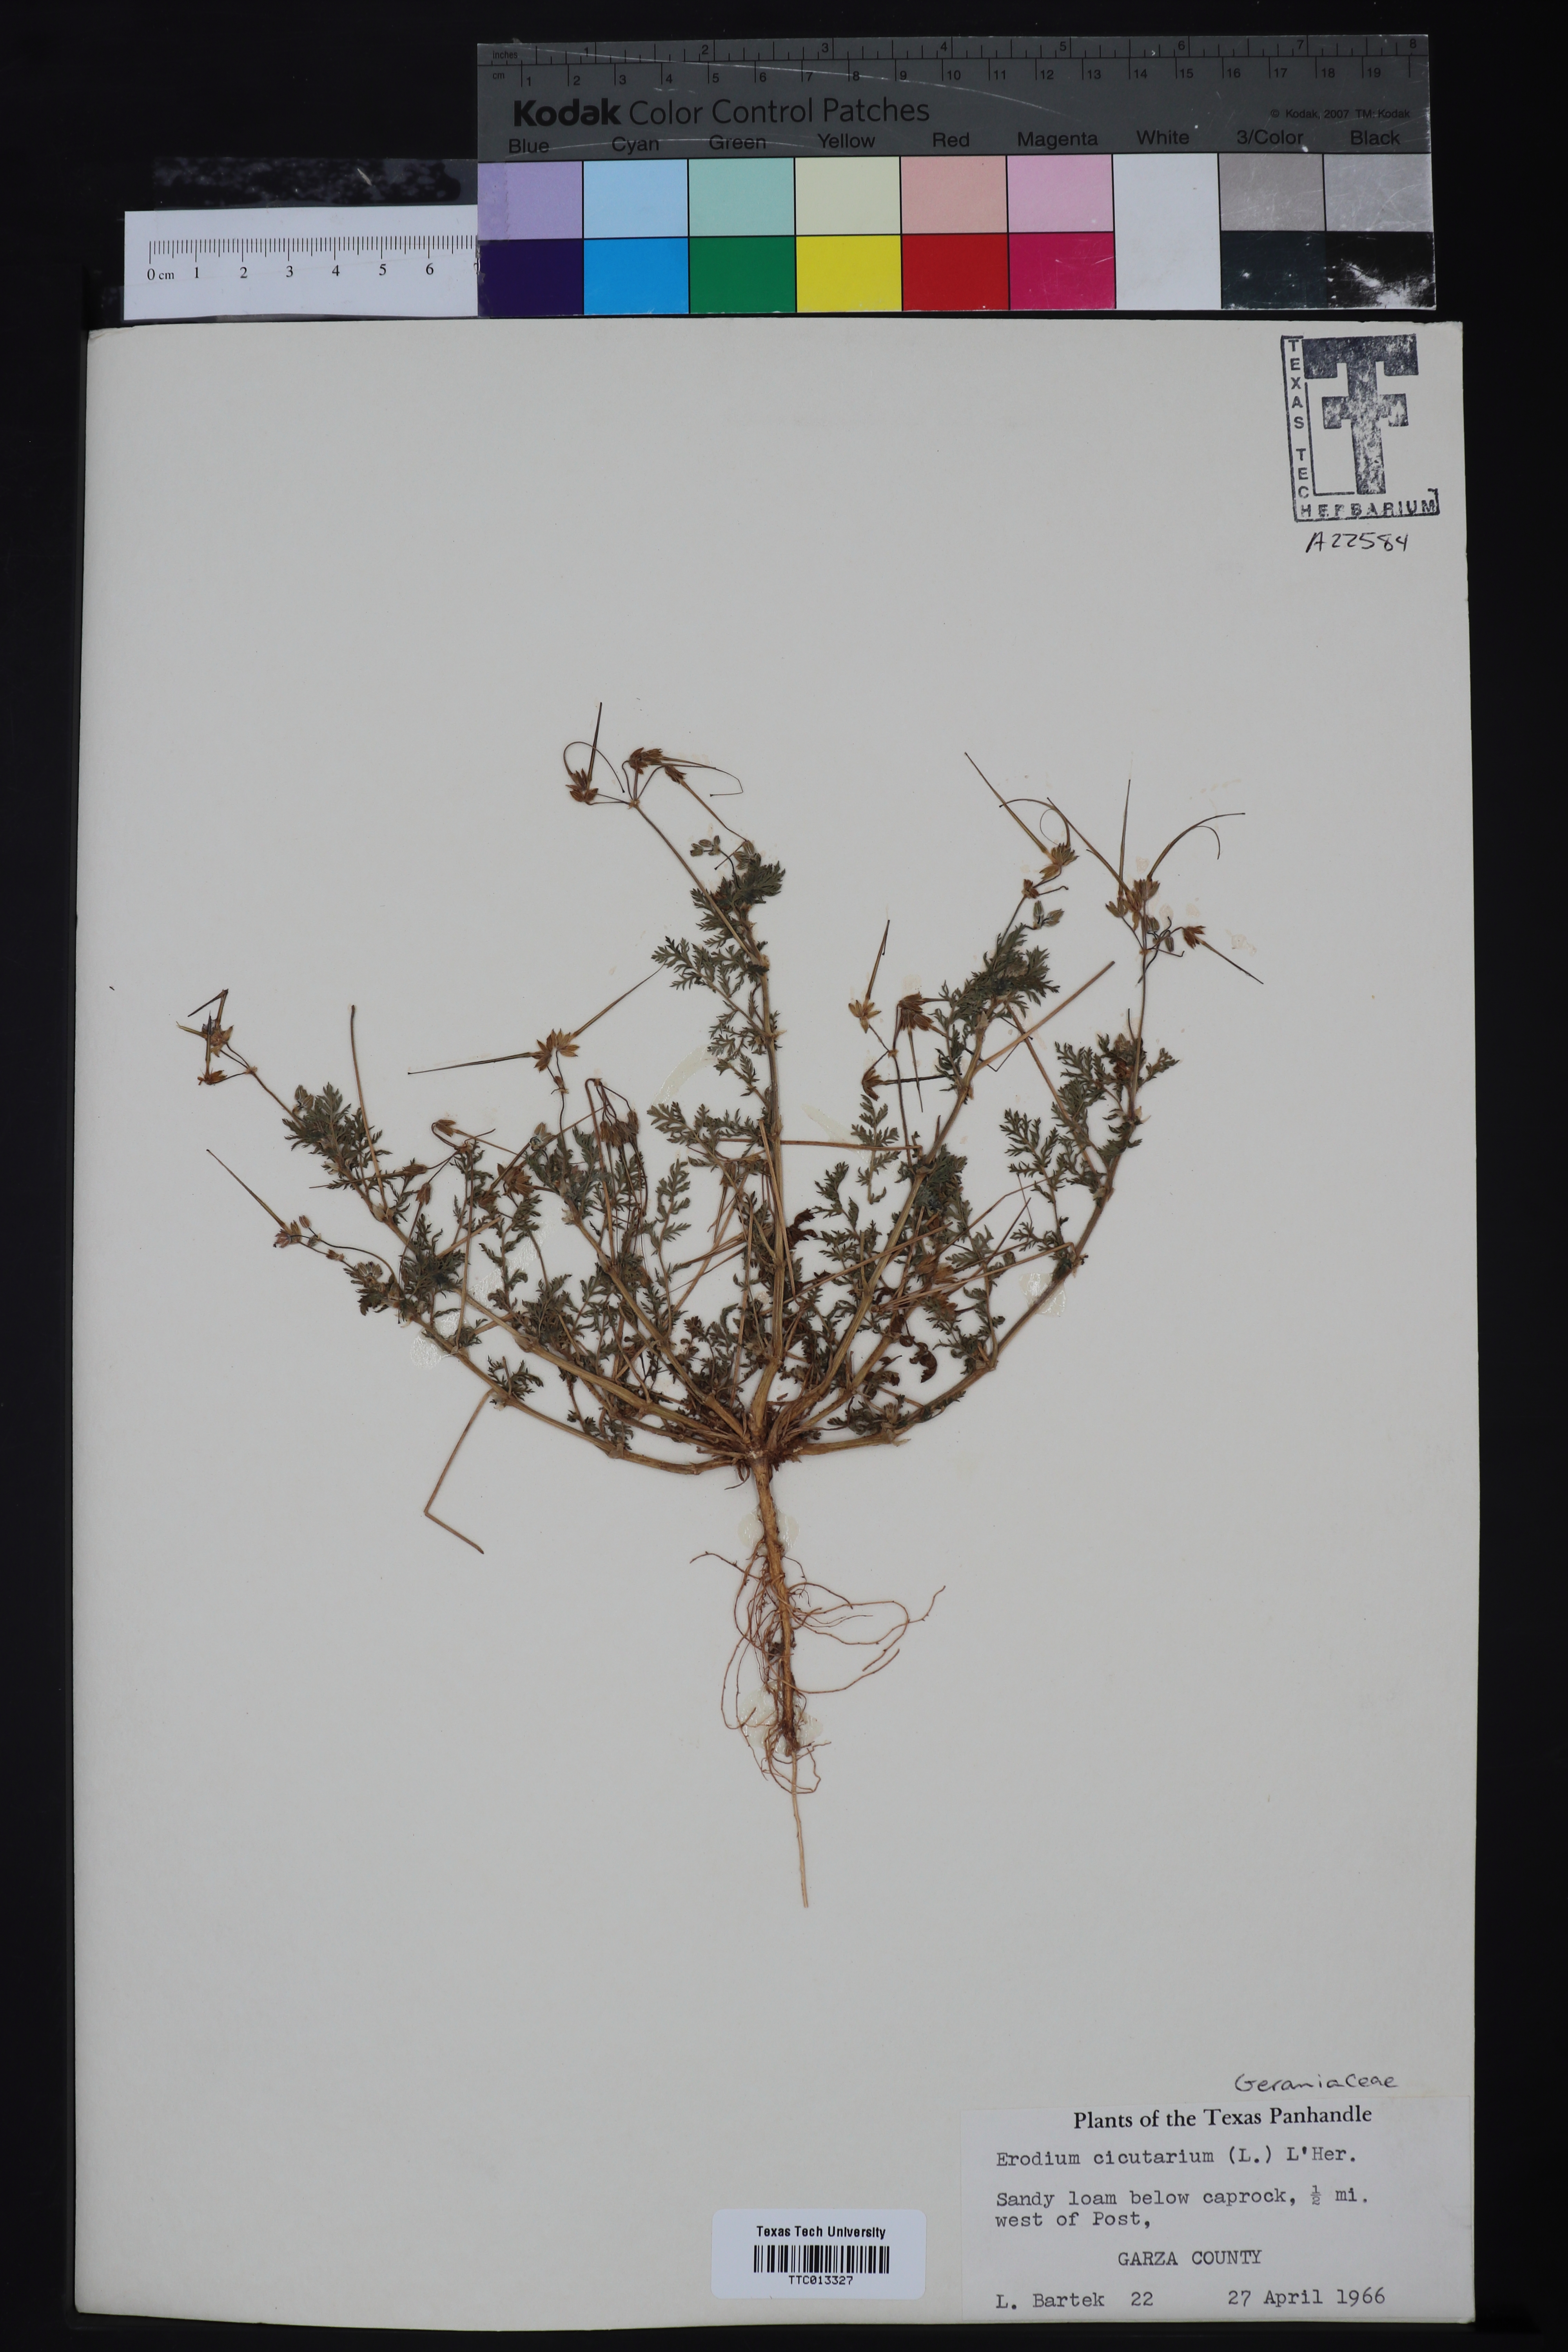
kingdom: Plantae
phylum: Tracheophyta
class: Magnoliopsida
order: Geraniales
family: Geraniaceae
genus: Erodium
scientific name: Erodium cicutarium
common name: Common stork's-bill
